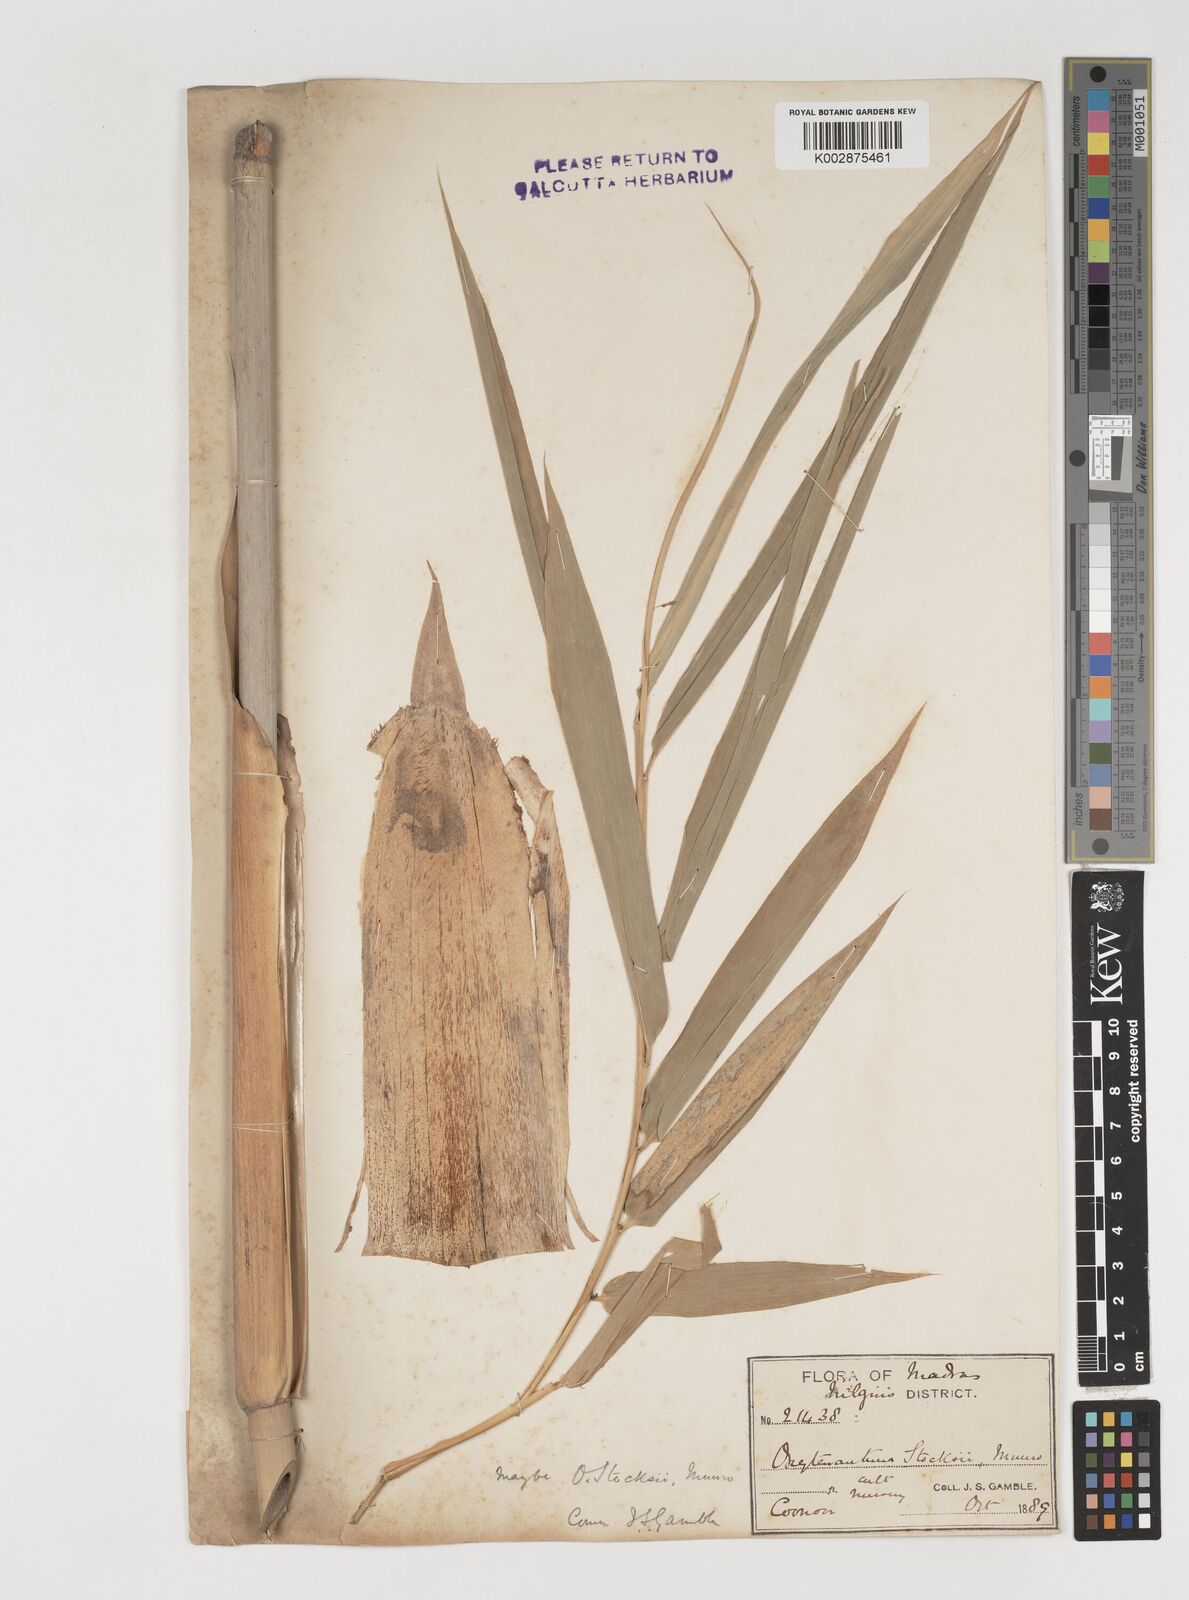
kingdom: Plantae
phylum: Tracheophyta
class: Liliopsida
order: Poales
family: Poaceae
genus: Pseudoxytenanthera
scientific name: Pseudoxytenanthera stocksii
